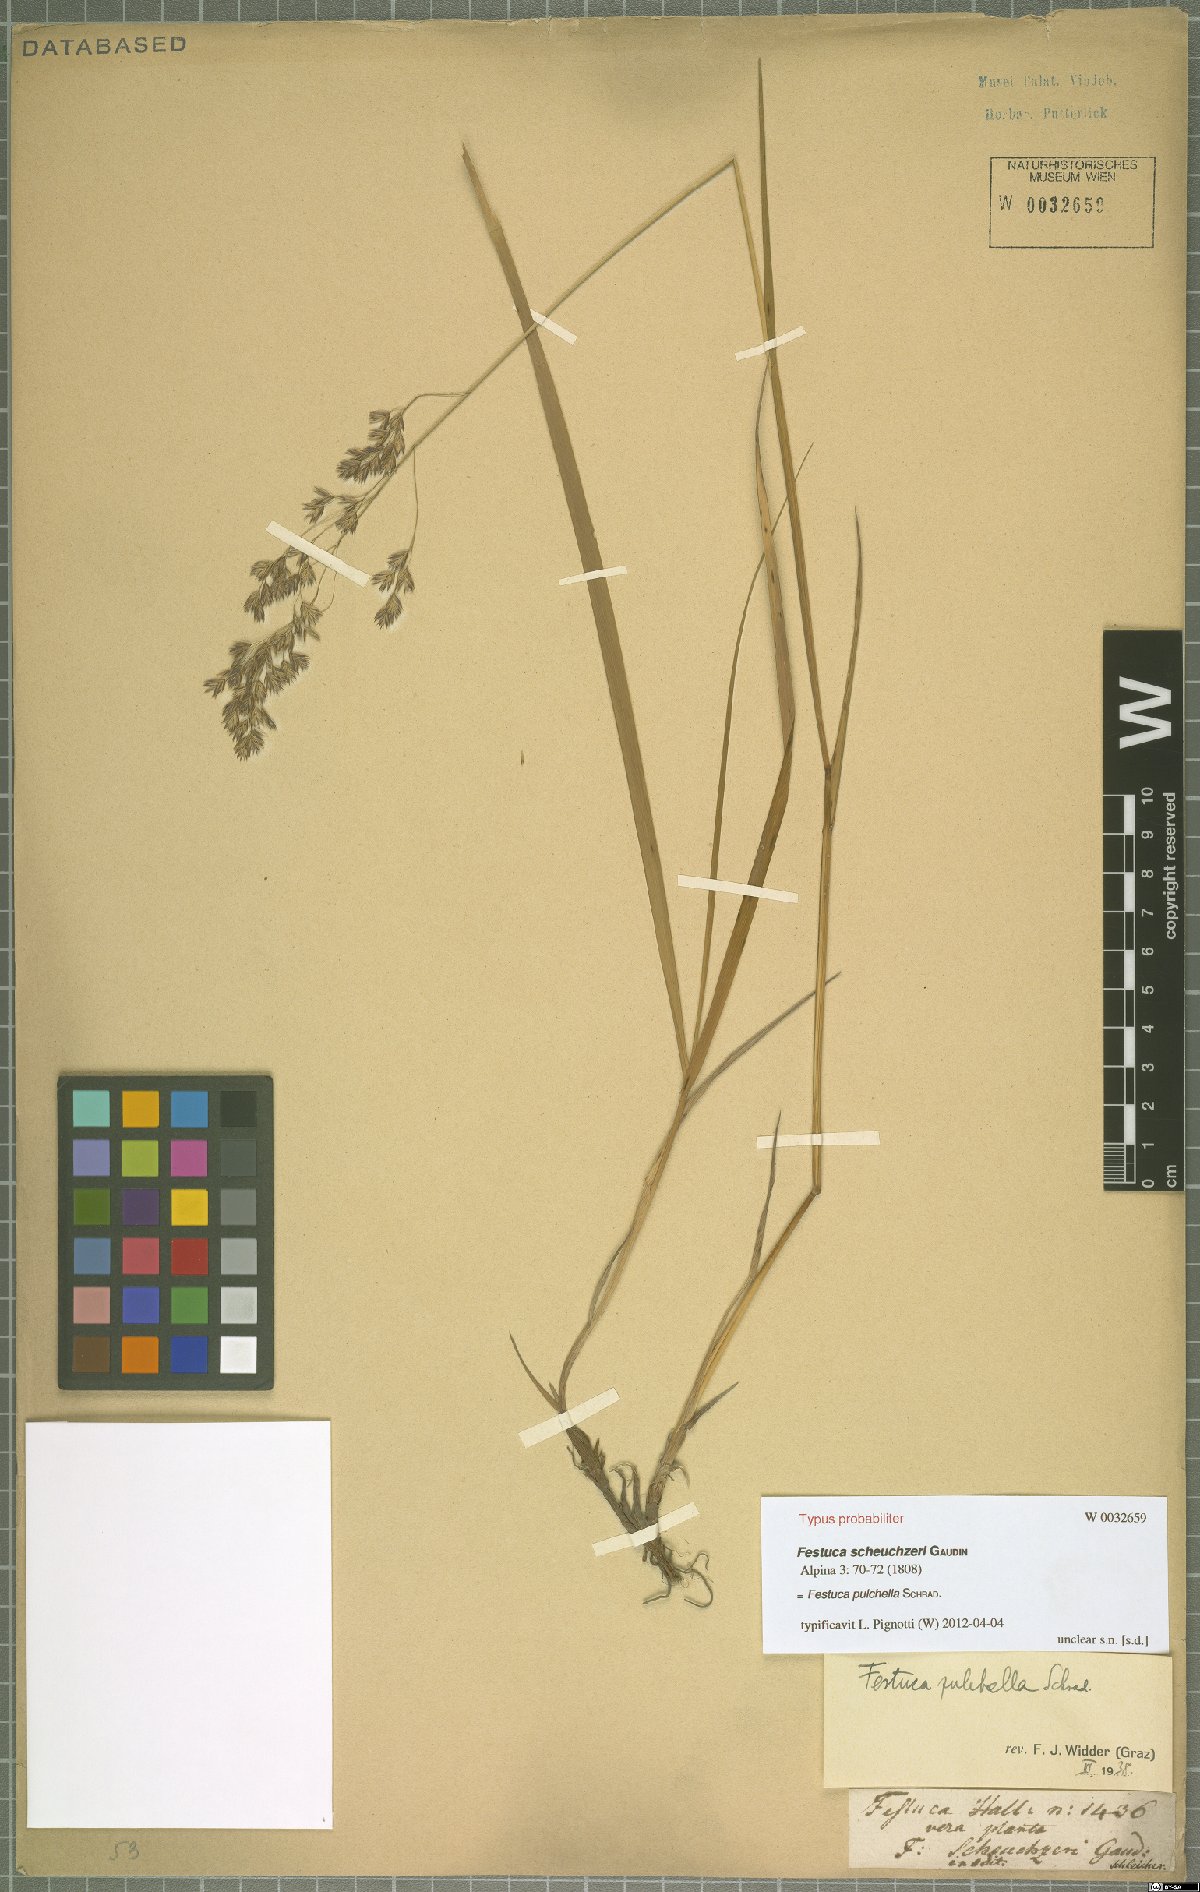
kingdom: Plantae
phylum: Tracheophyta
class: Liliopsida
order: Poales
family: Poaceae
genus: Festuca
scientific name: Festuca pulchella
